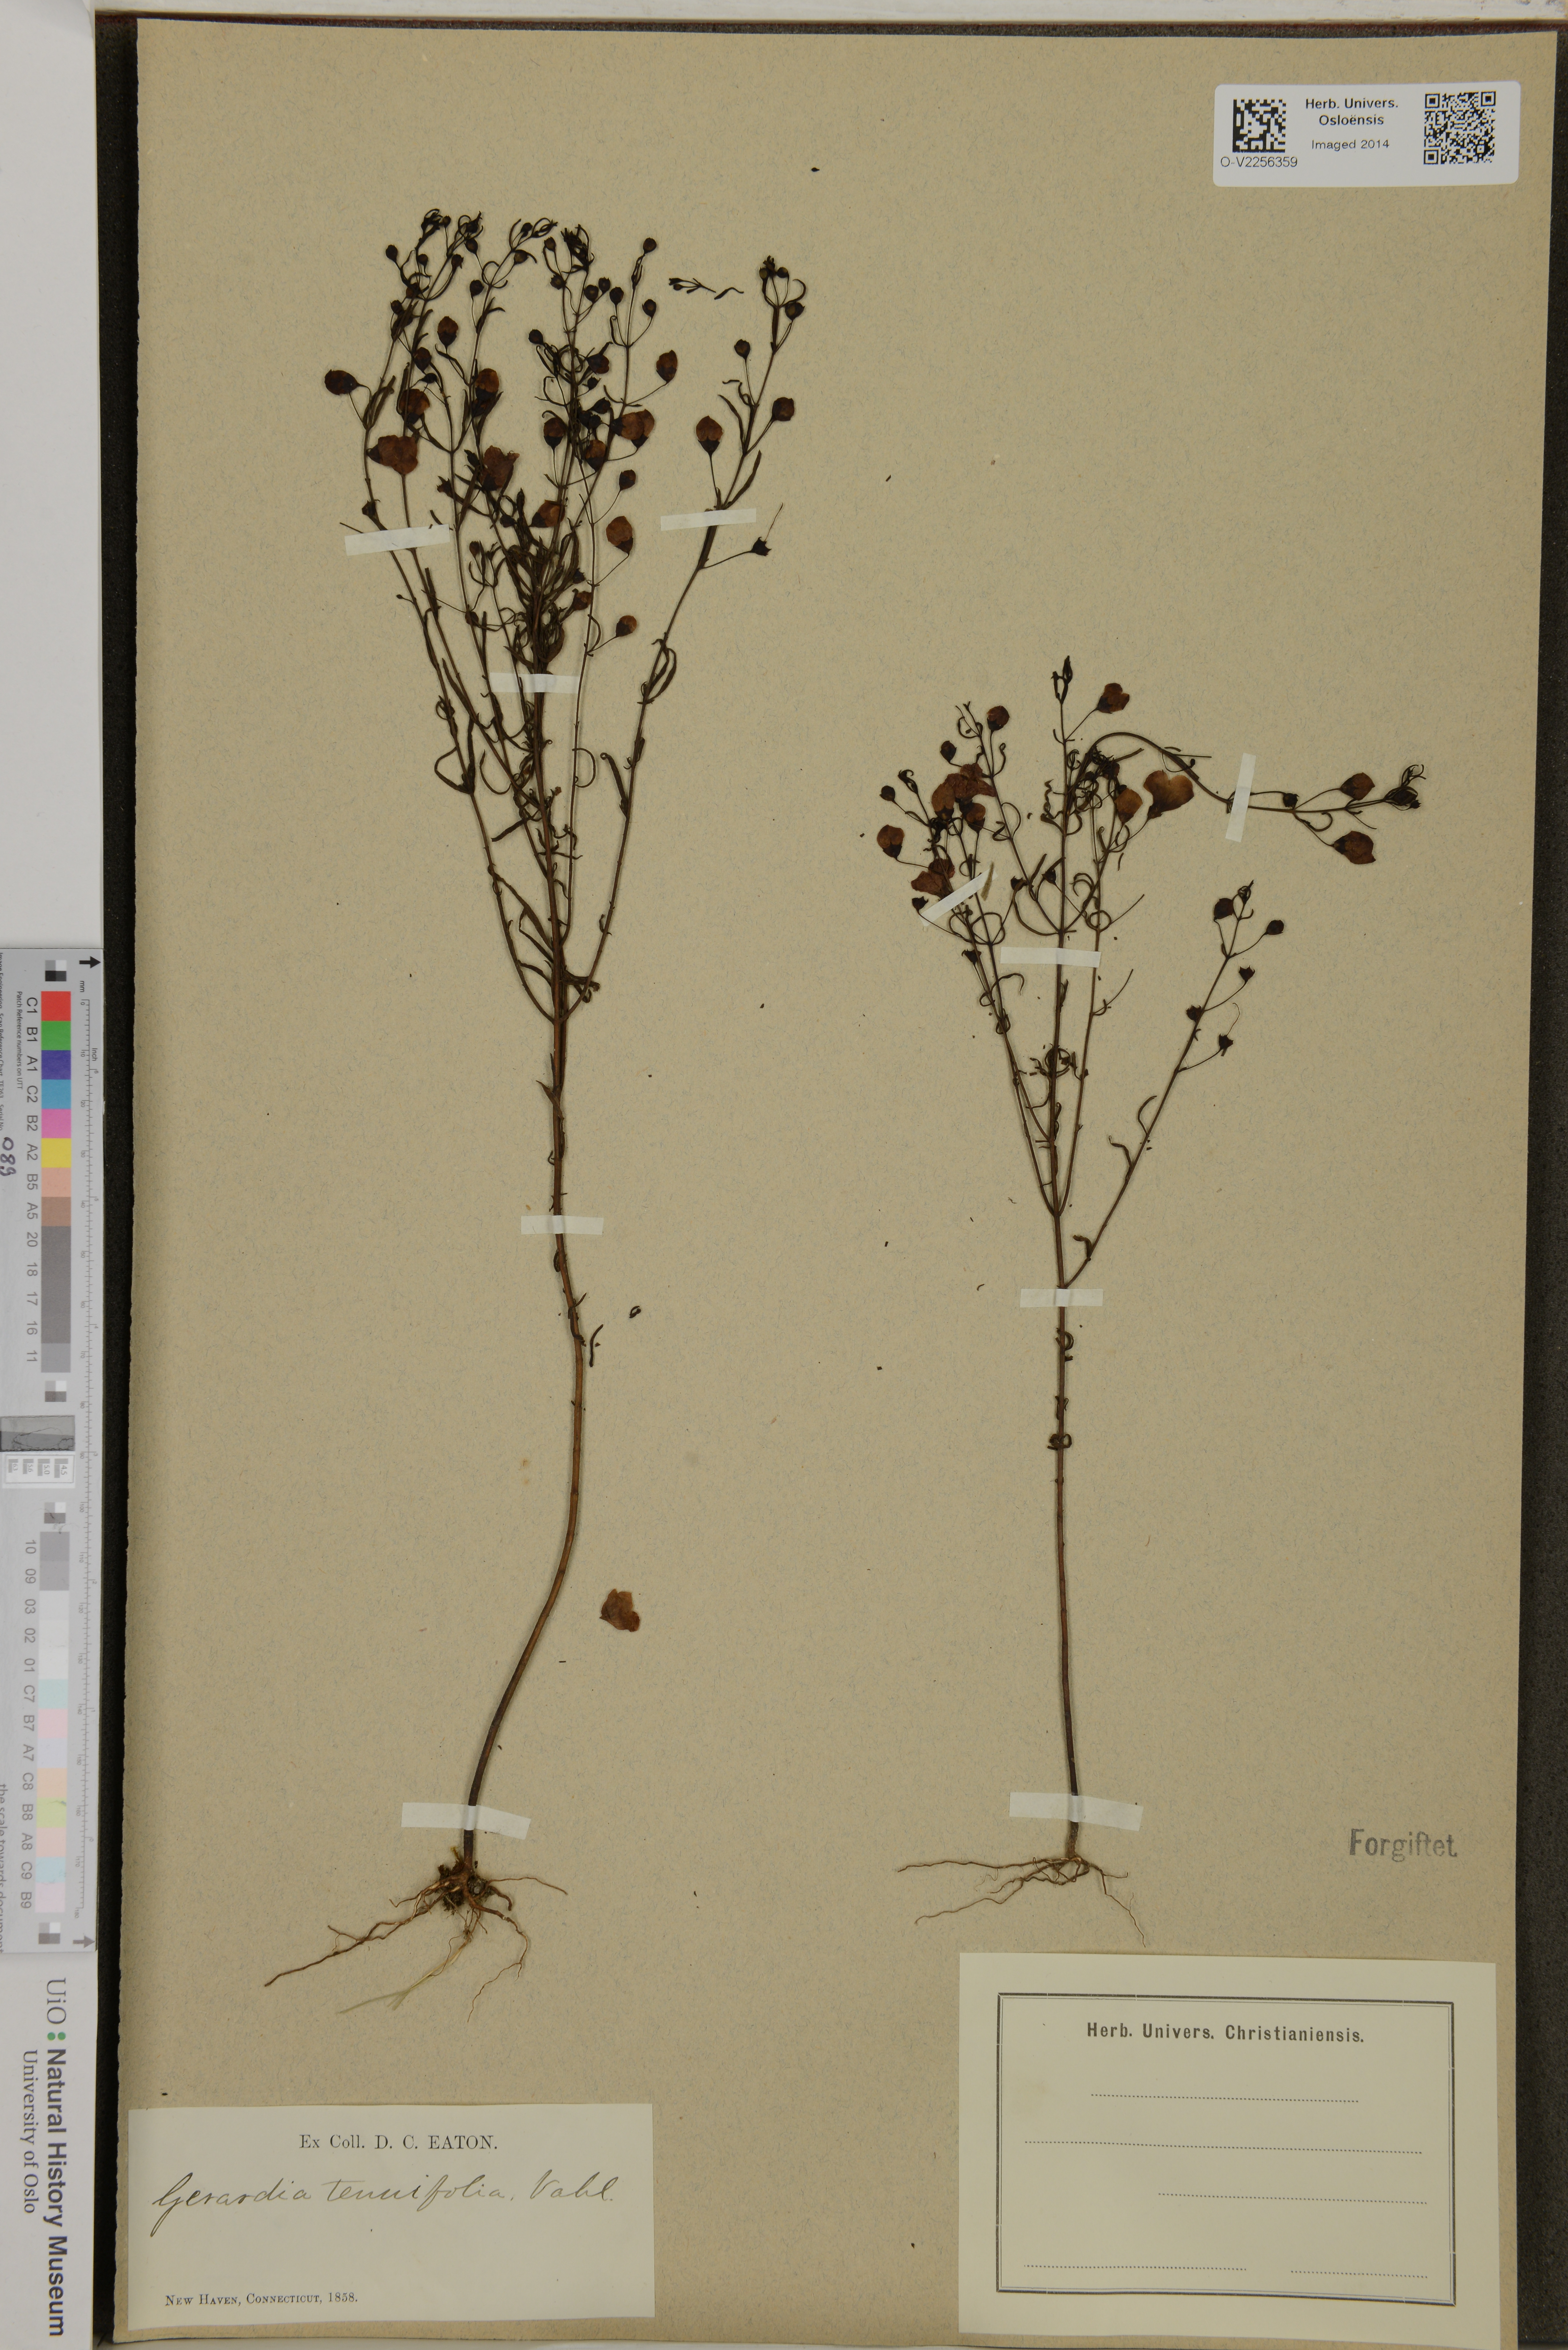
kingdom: Plantae
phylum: Tracheophyta
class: Magnoliopsida
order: Lamiales
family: Orobanchaceae
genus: Agalinis
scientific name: Agalinis tenuifolia
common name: Slender agalinis
